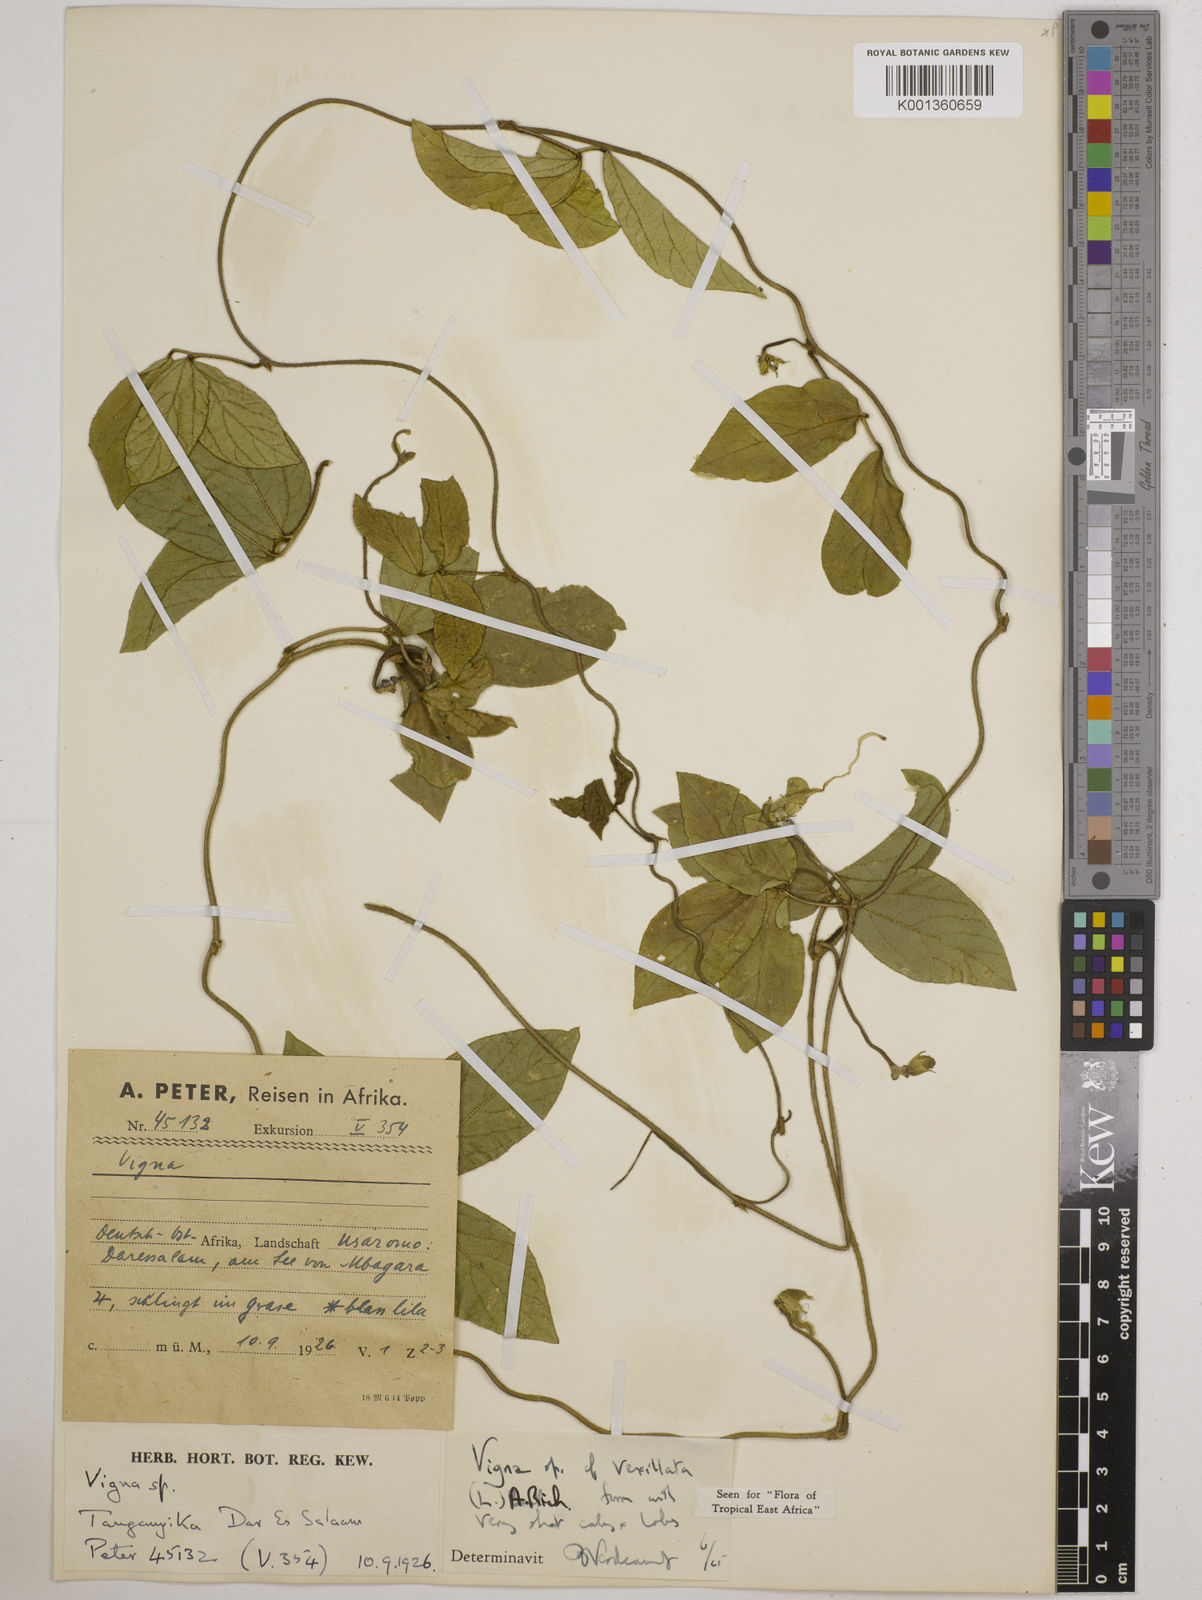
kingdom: Plantae
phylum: Tracheophyta
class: Magnoliopsida
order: Fabales
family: Fabaceae
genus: Vigna
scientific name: Vigna vexillata
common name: Zombi pea
